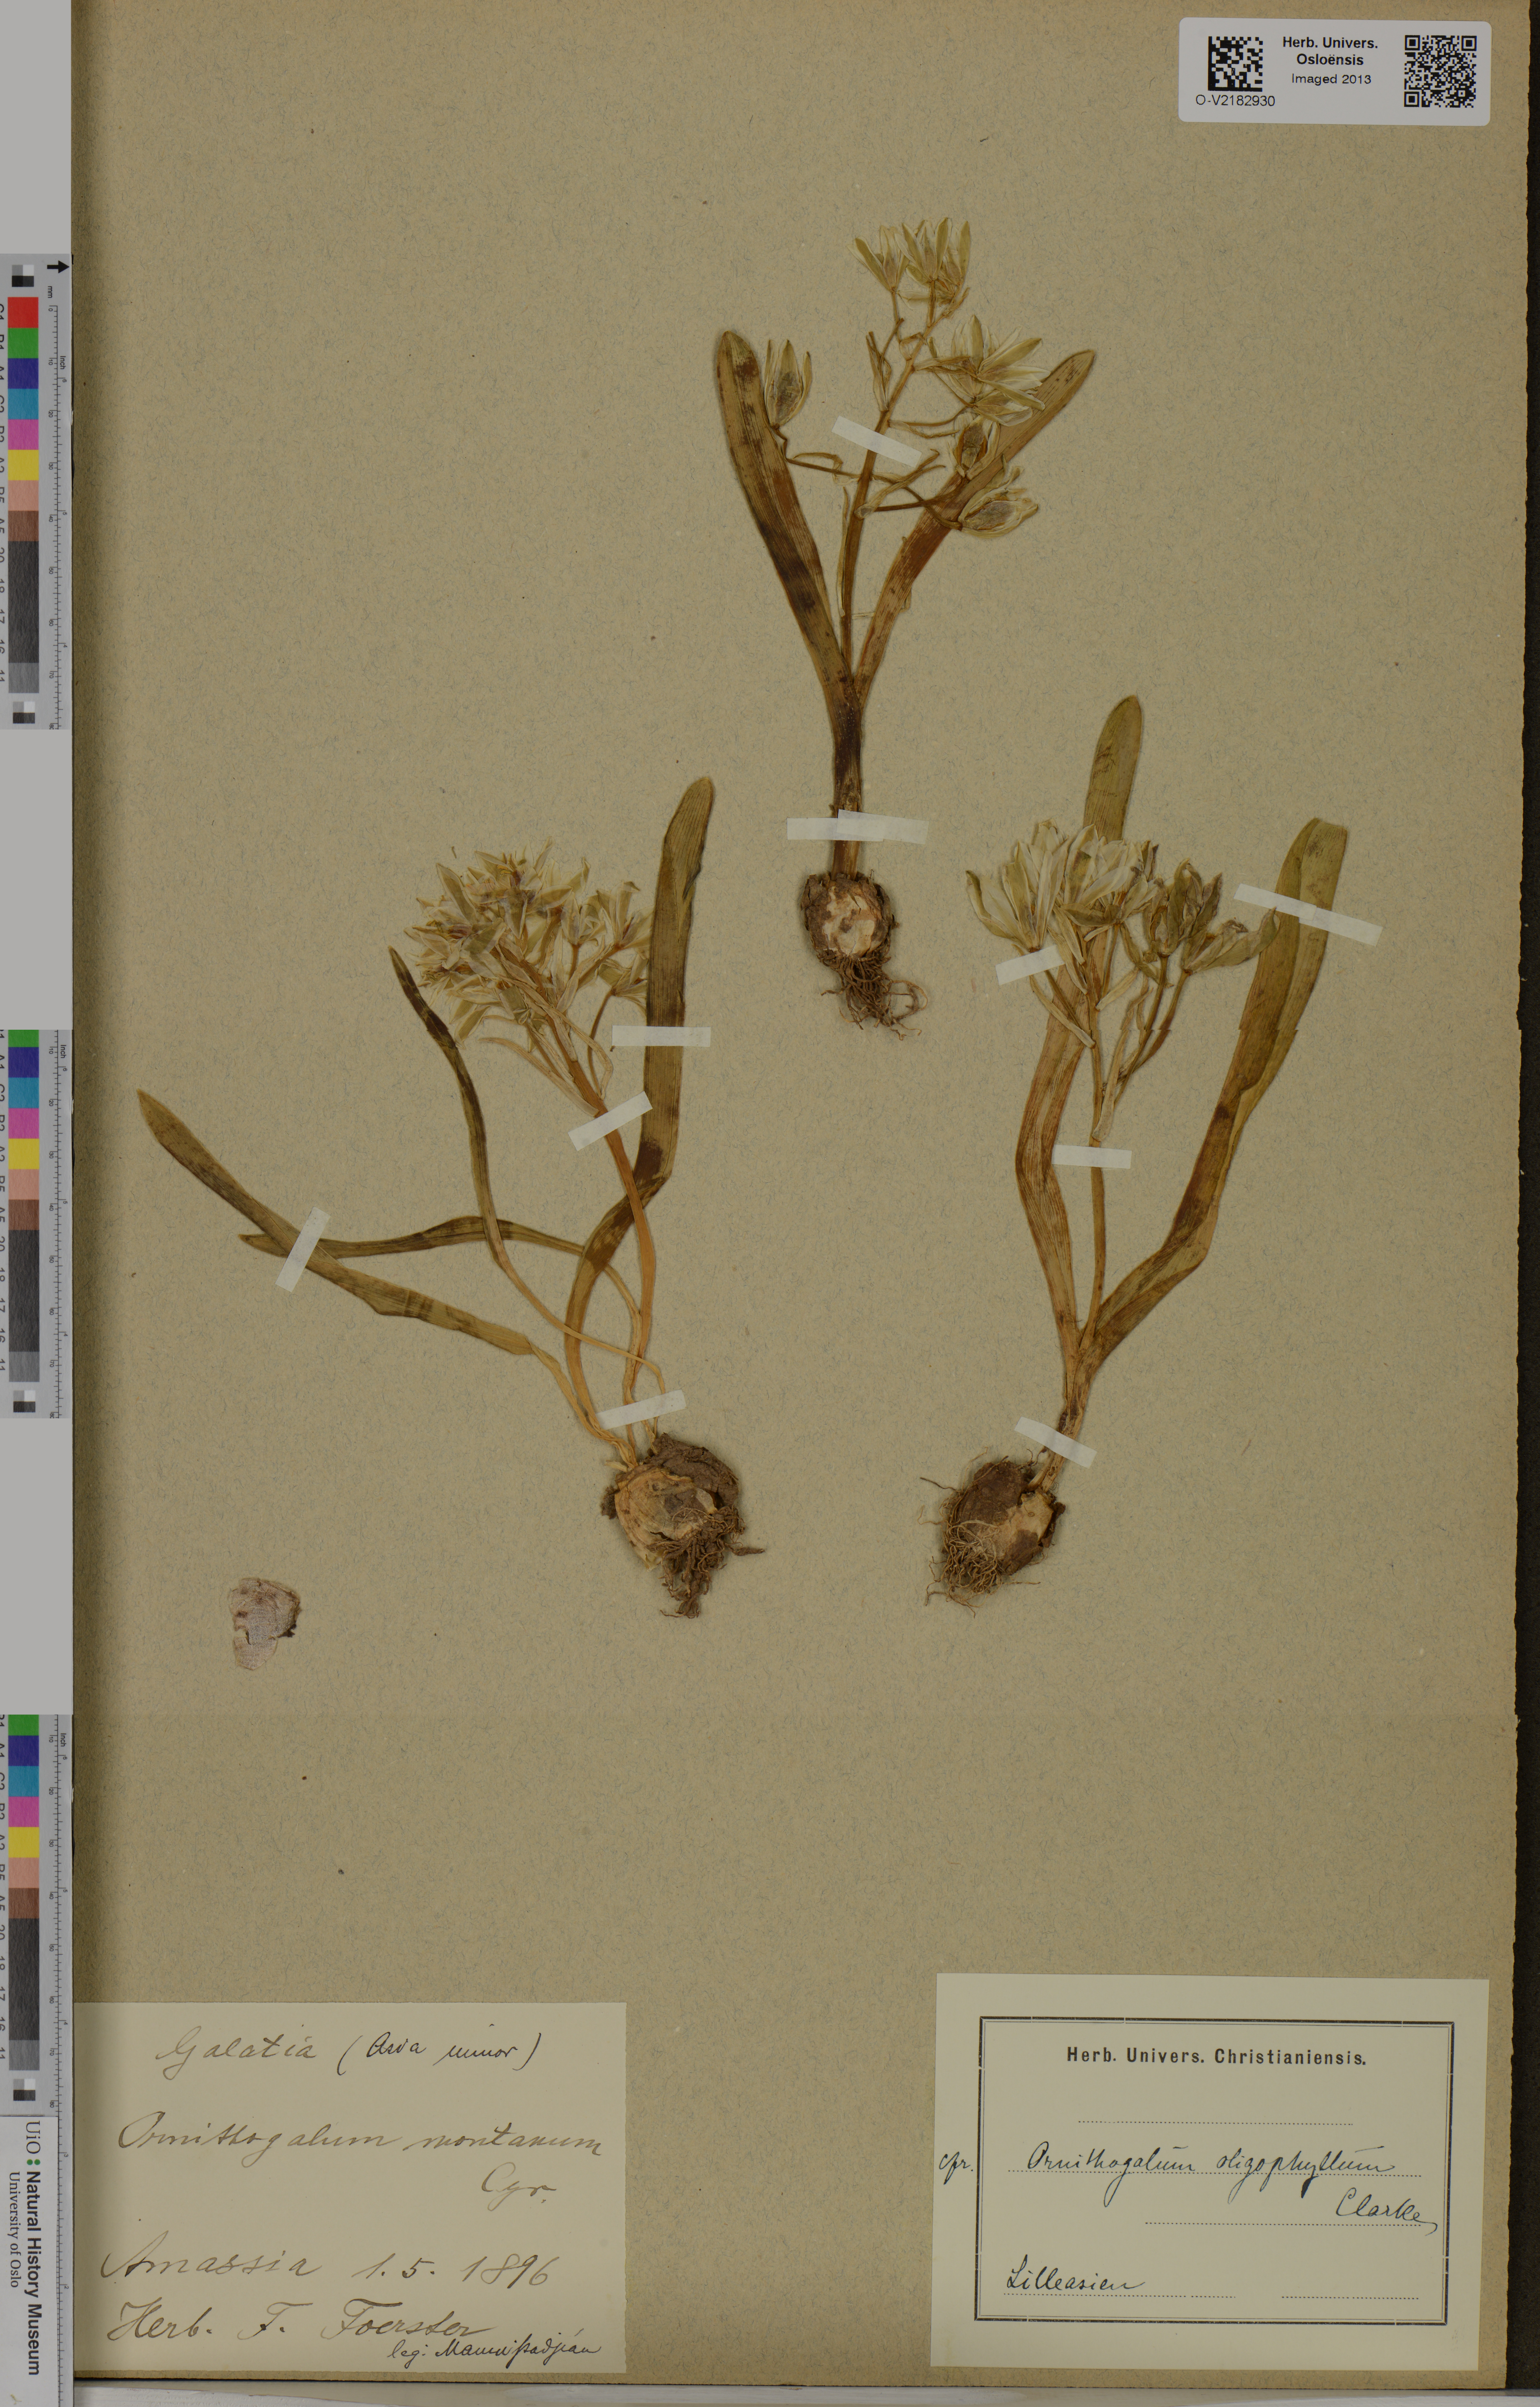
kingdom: Plantae
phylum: Tracheophyta
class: Liliopsida
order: Asparagales
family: Asparagaceae
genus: Ornithogalum
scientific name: Ornithogalum oligophyllum
